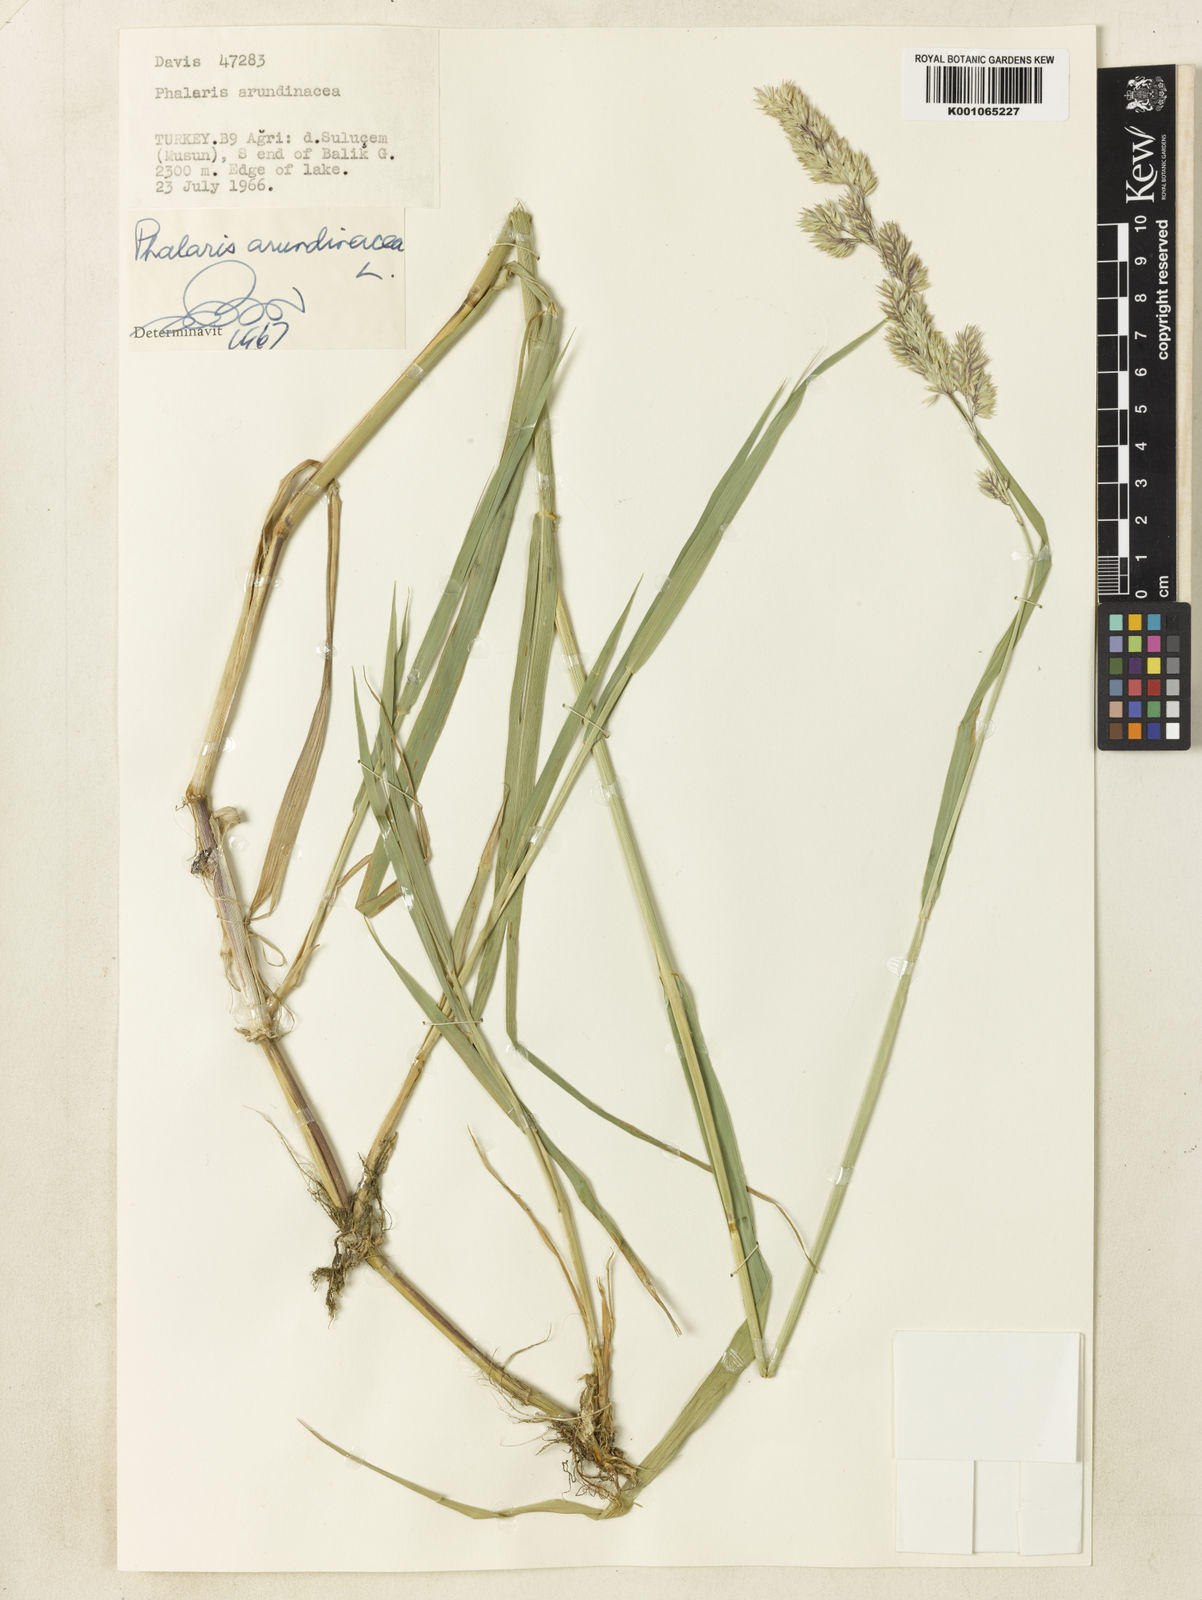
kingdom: Plantae
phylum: Tracheophyta
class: Liliopsida
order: Poales
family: Poaceae
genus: Phalaris
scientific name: Phalaris arundinacea
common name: Reed canary-grass
